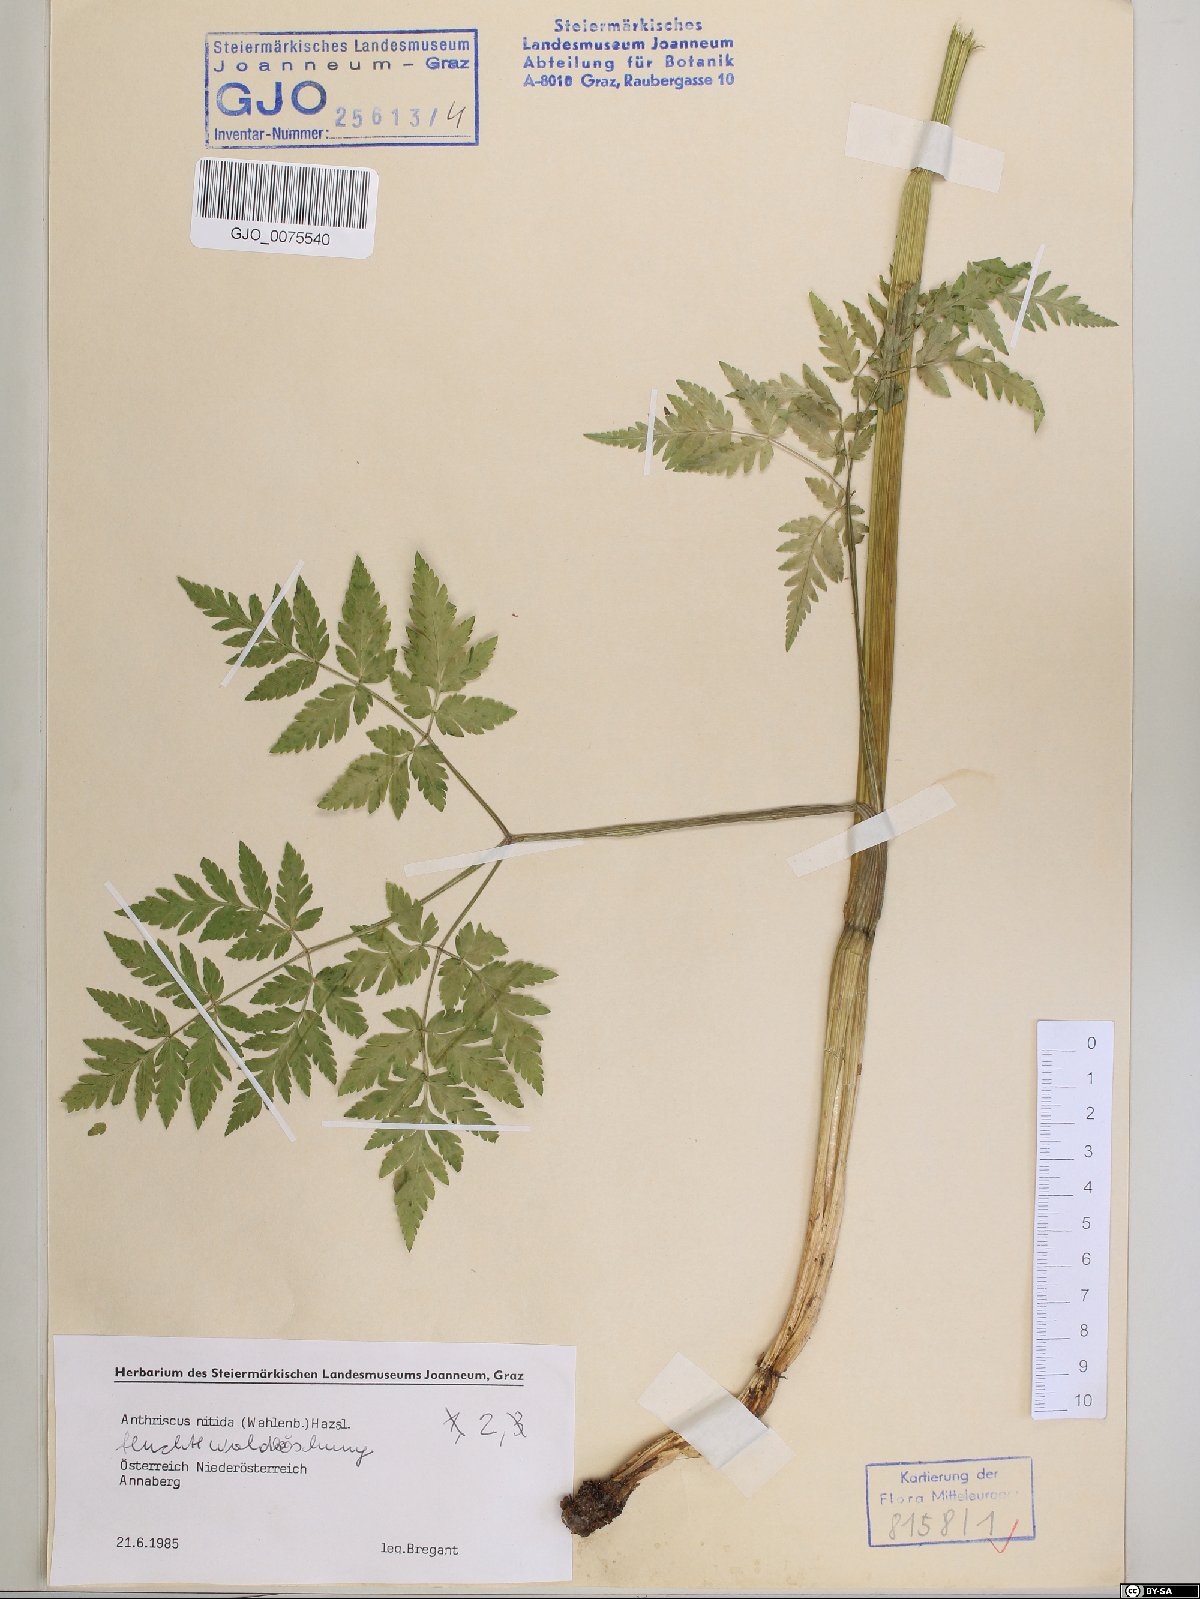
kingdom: Plantae
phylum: Tracheophyta
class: Magnoliopsida
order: Apiales
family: Apiaceae
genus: Anthriscus
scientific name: Anthriscus nitida
